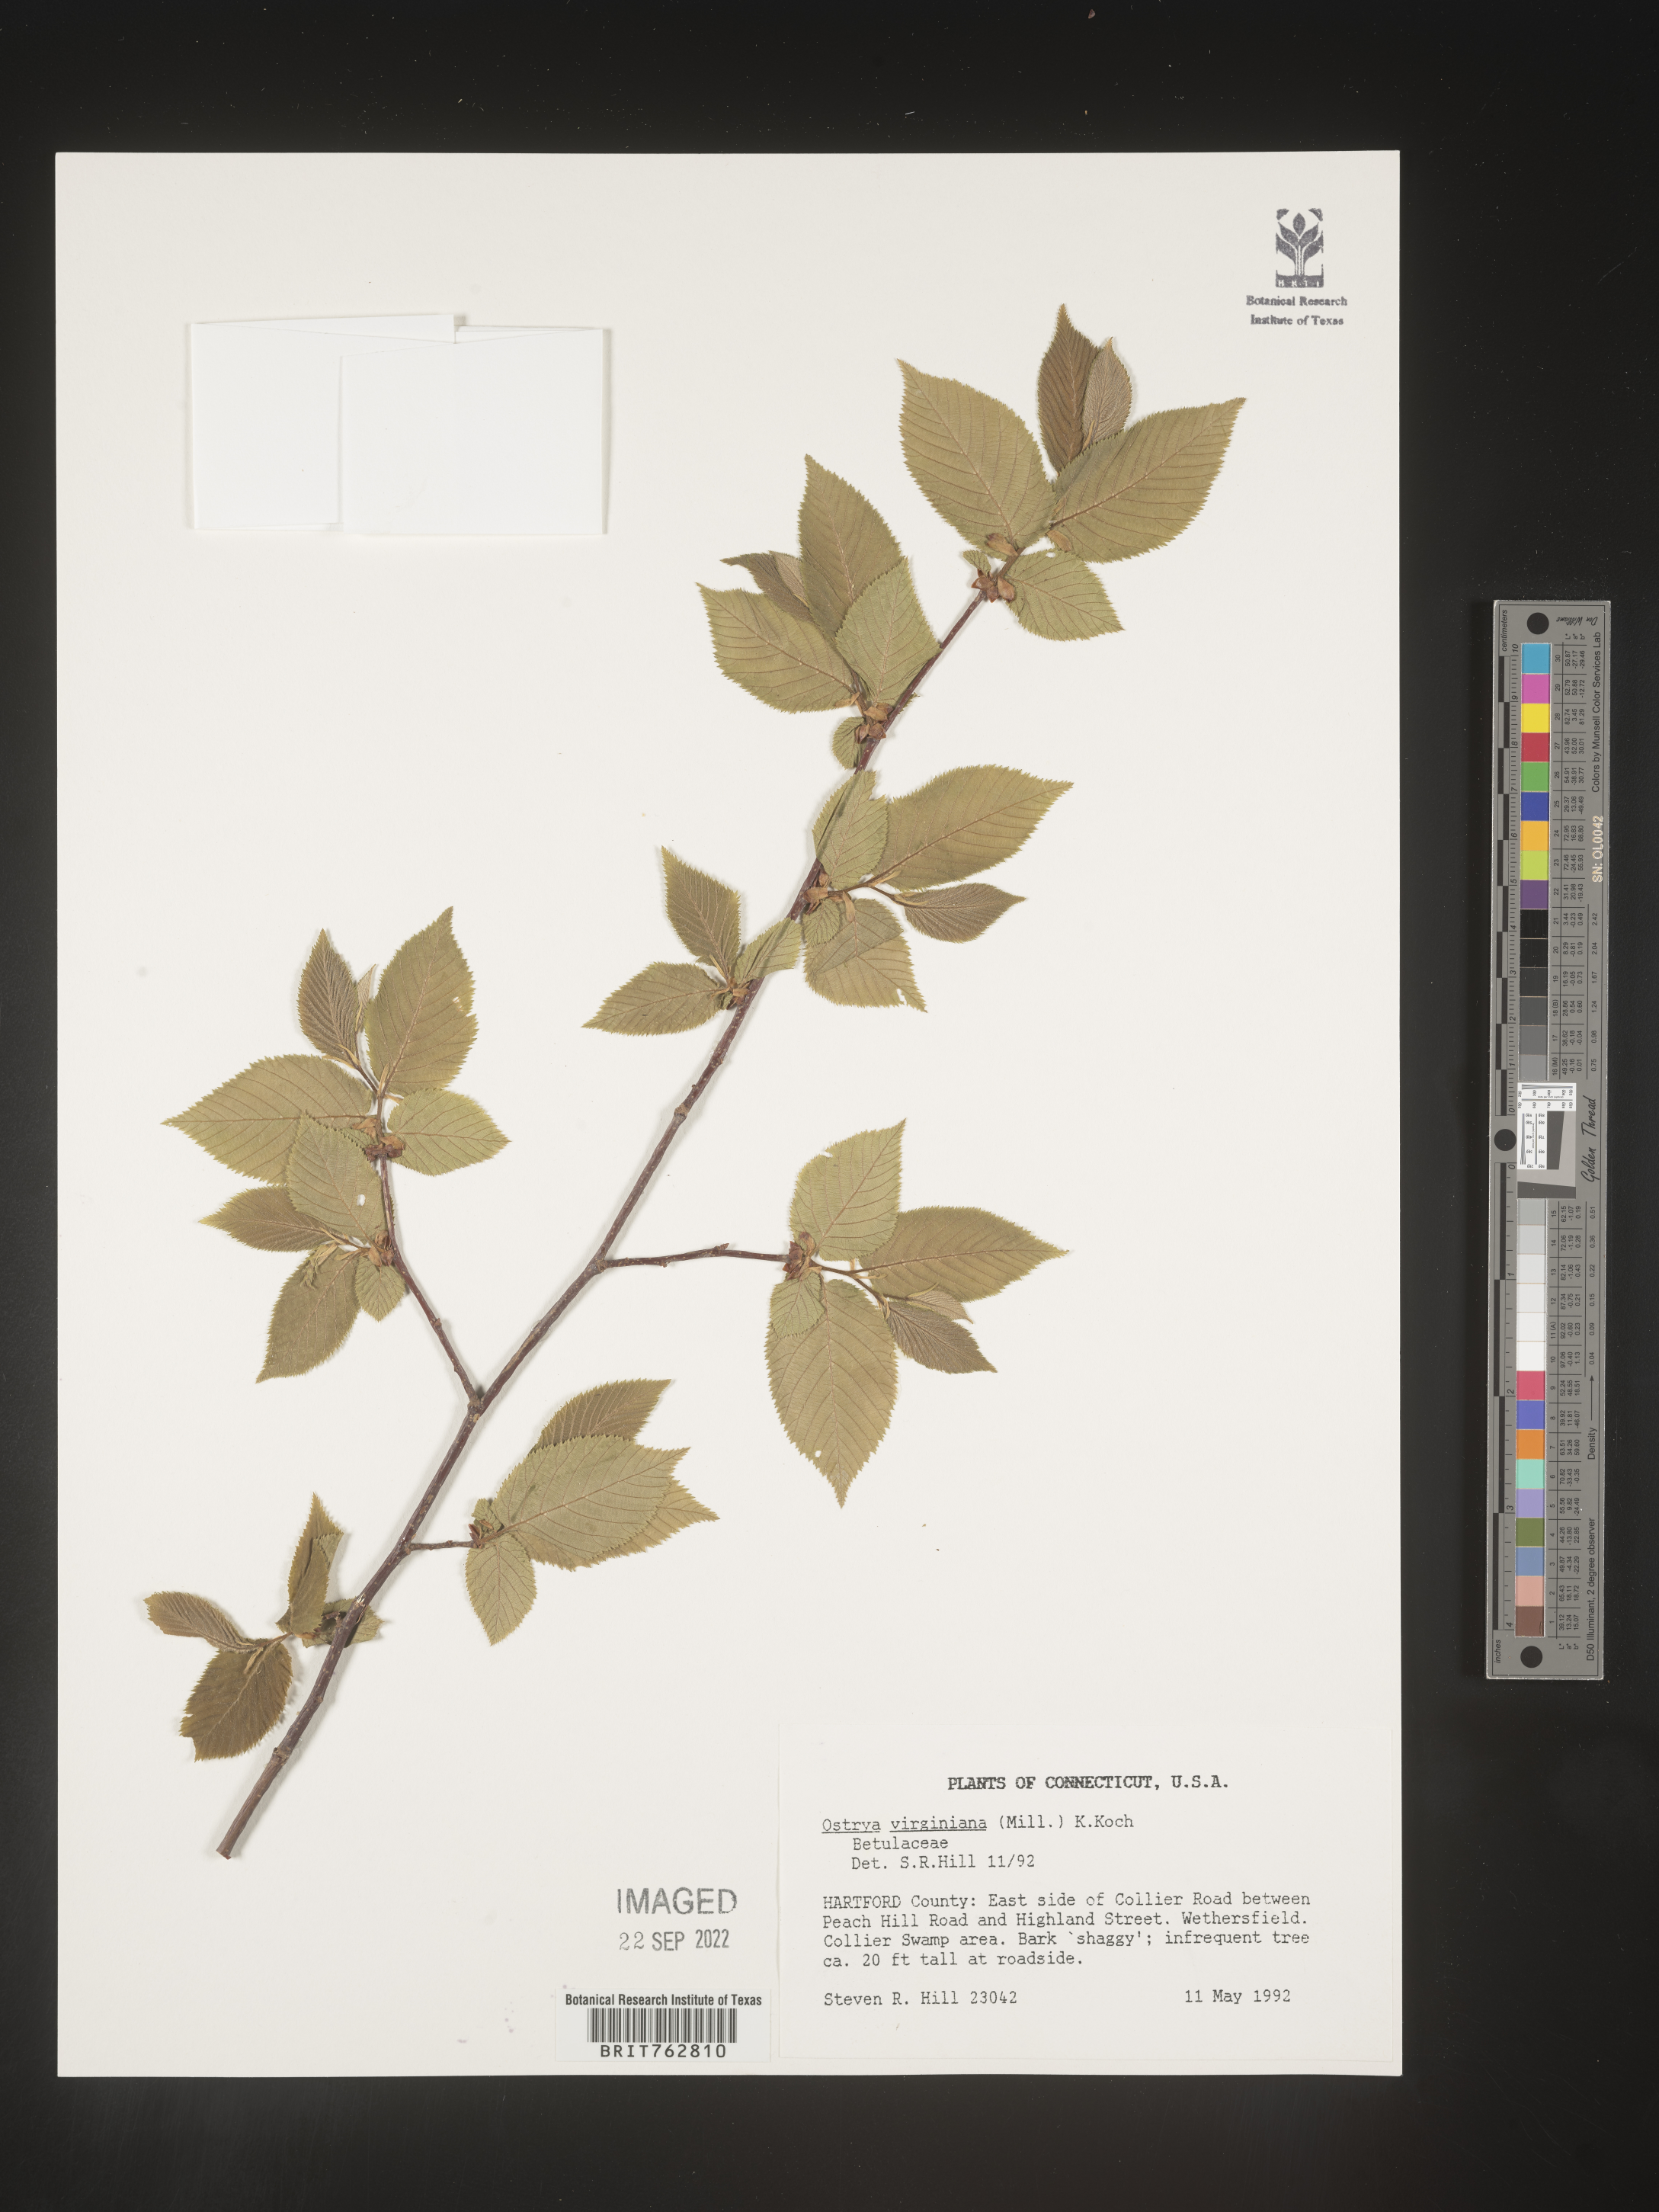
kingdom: Plantae
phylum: Tracheophyta
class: Magnoliopsida
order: Fagales
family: Betulaceae
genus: Ostrya
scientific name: Ostrya virginiana
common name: Ironwood
